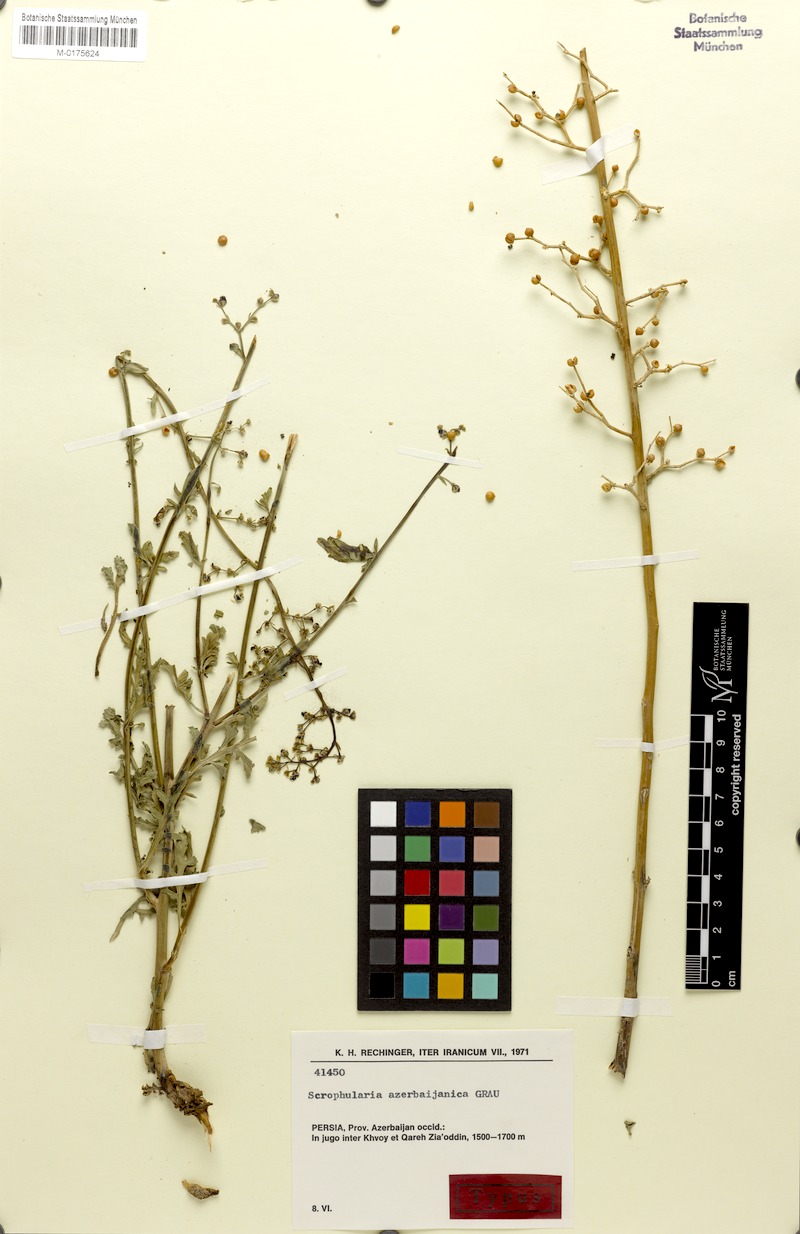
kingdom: Plantae
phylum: Tracheophyta
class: Magnoliopsida
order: Lamiales
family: Scrophulariaceae
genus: Scrophularia
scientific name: Scrophularia azerbaijanica
